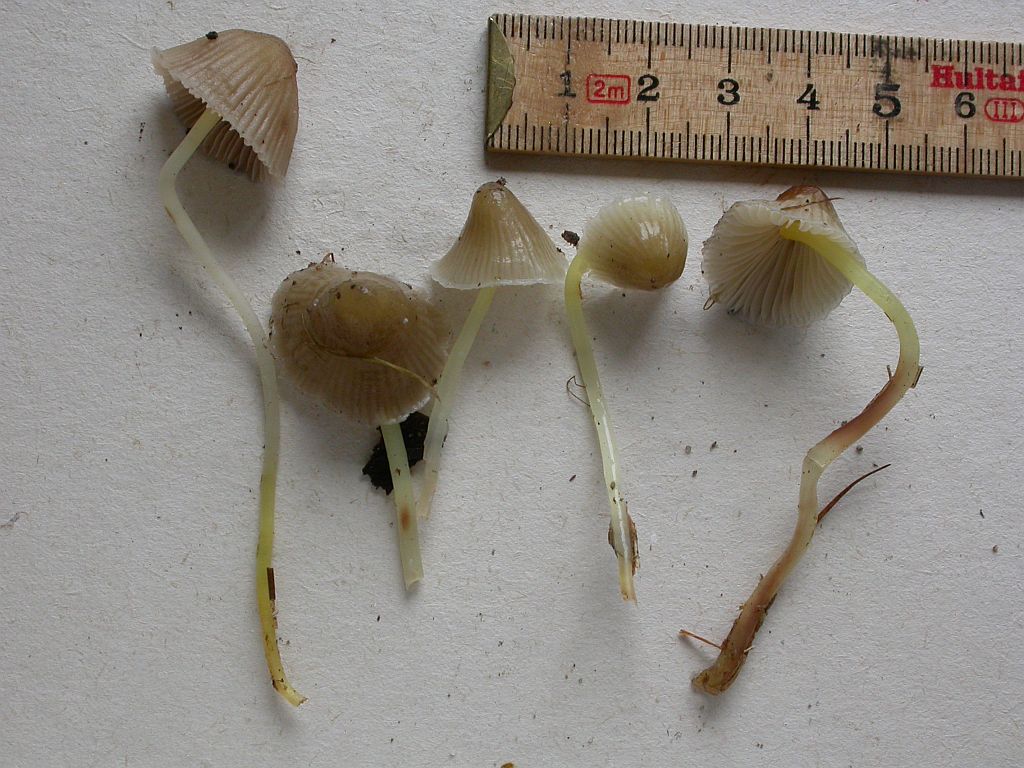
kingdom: Fungi
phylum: Basidiomycota
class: Agaricomycetes
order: Agaricales
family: Mycenaceae
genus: Mycena
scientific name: Mycena epipterygia
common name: gulstokket huesvamp
